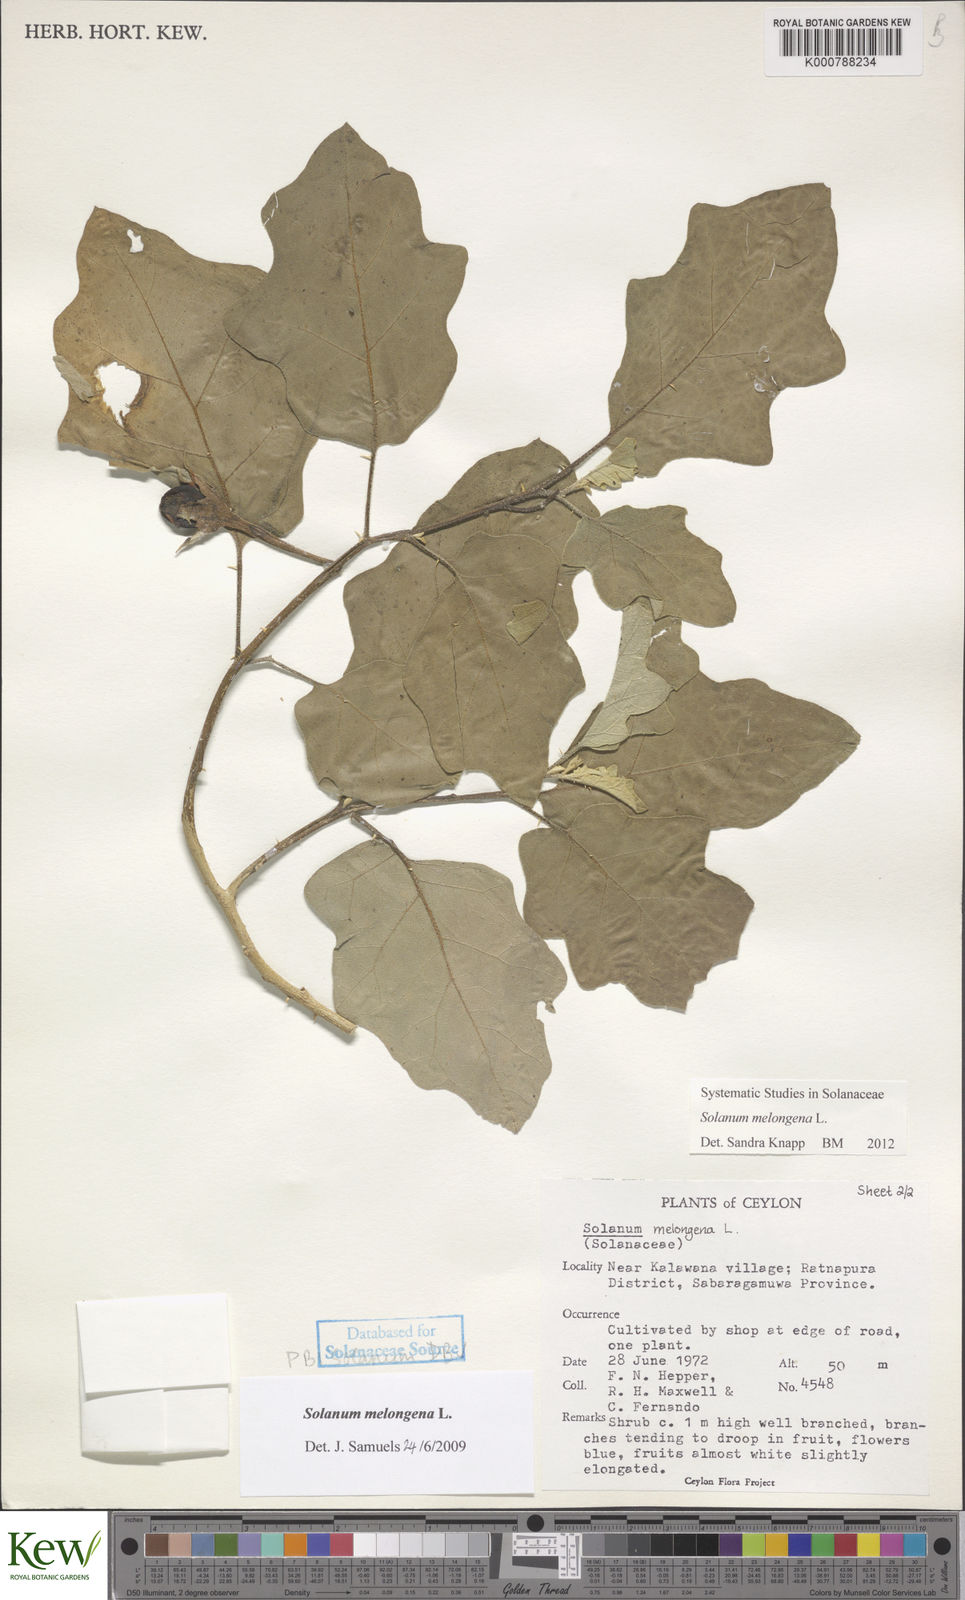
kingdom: Plantae
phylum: Tracheophyta
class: Magnoliopsida
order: Solanales
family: Solanaceae
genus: Solanum
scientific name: Solanum melongena
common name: Eggplant
